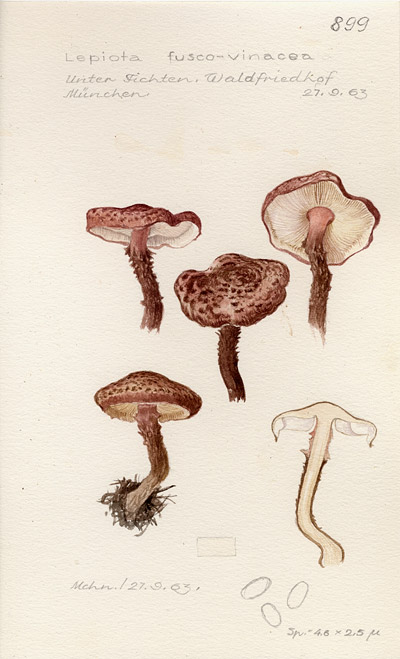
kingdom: Fungi
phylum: Basidiomycota
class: Agaricomycetes
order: Agaricales
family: Agaricaceae
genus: Lepiota
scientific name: Lepiota fuscovinacea
